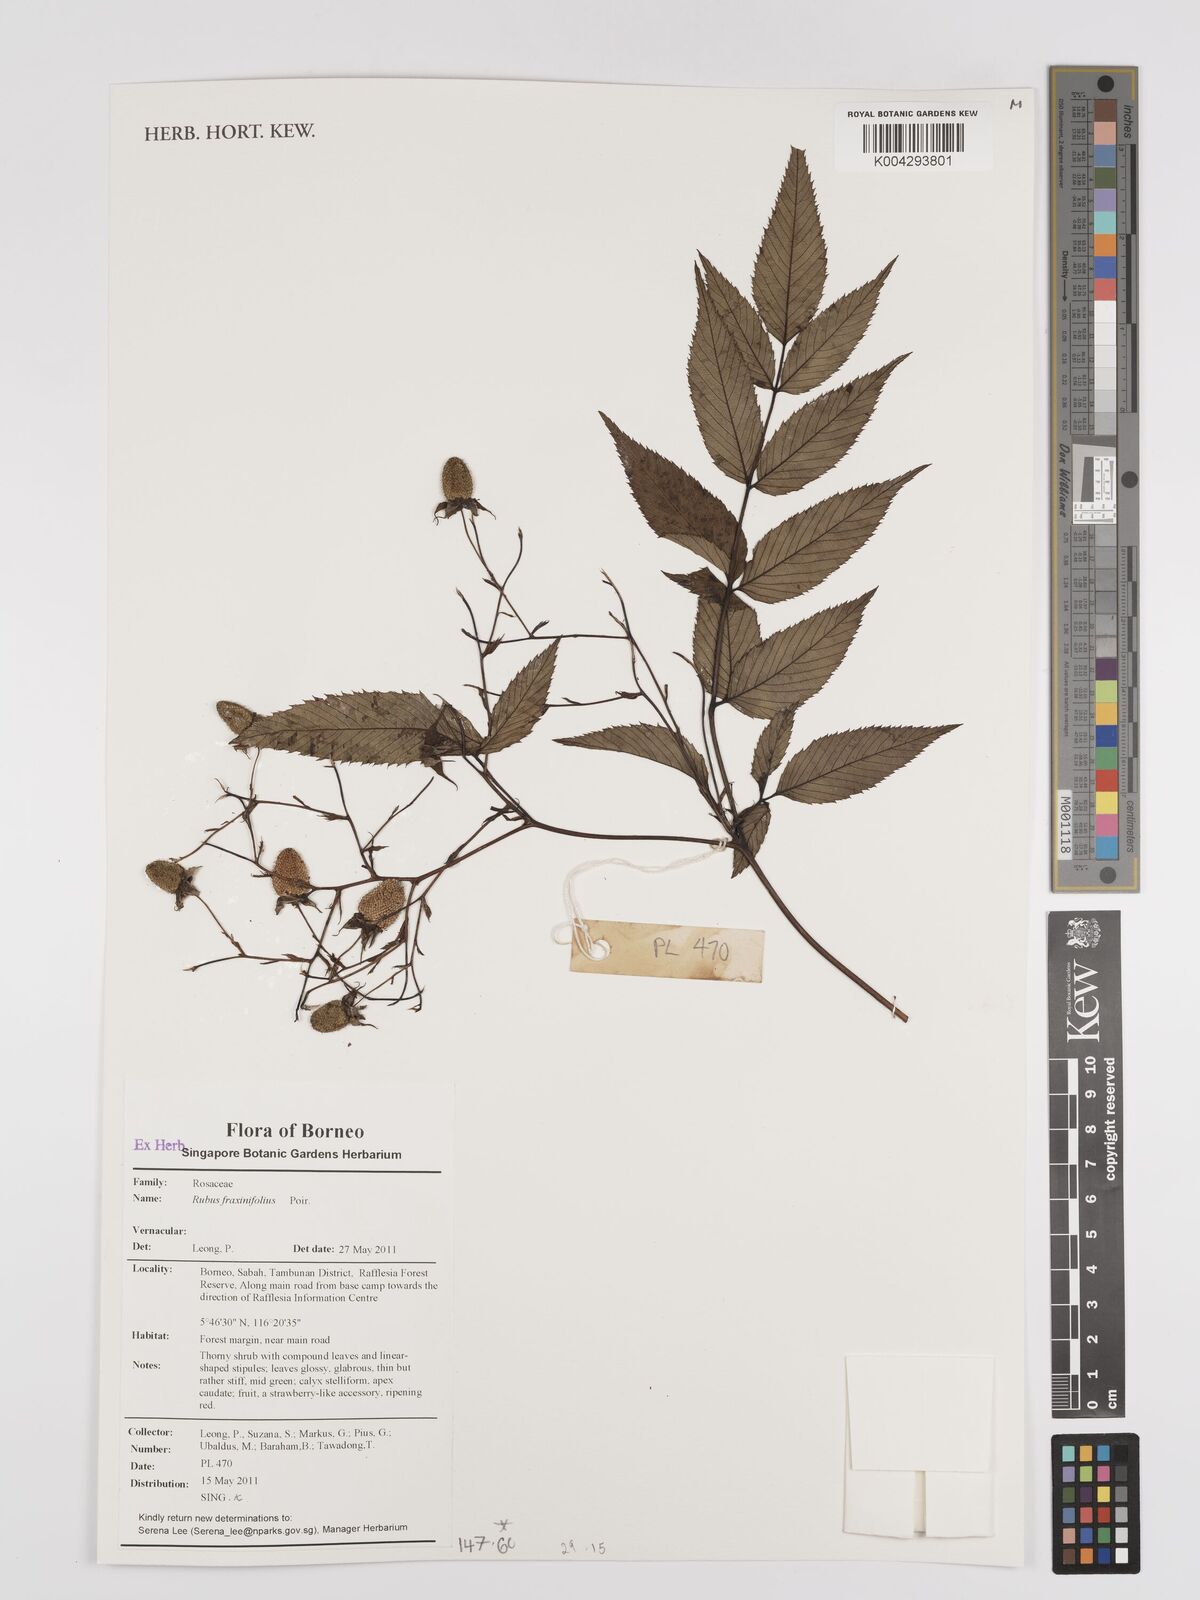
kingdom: Plantae
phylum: Tracheophyta
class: Magnoliopsida
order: Rosales
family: Rosaceae
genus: Rubus
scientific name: Rubus fraxinifolius
